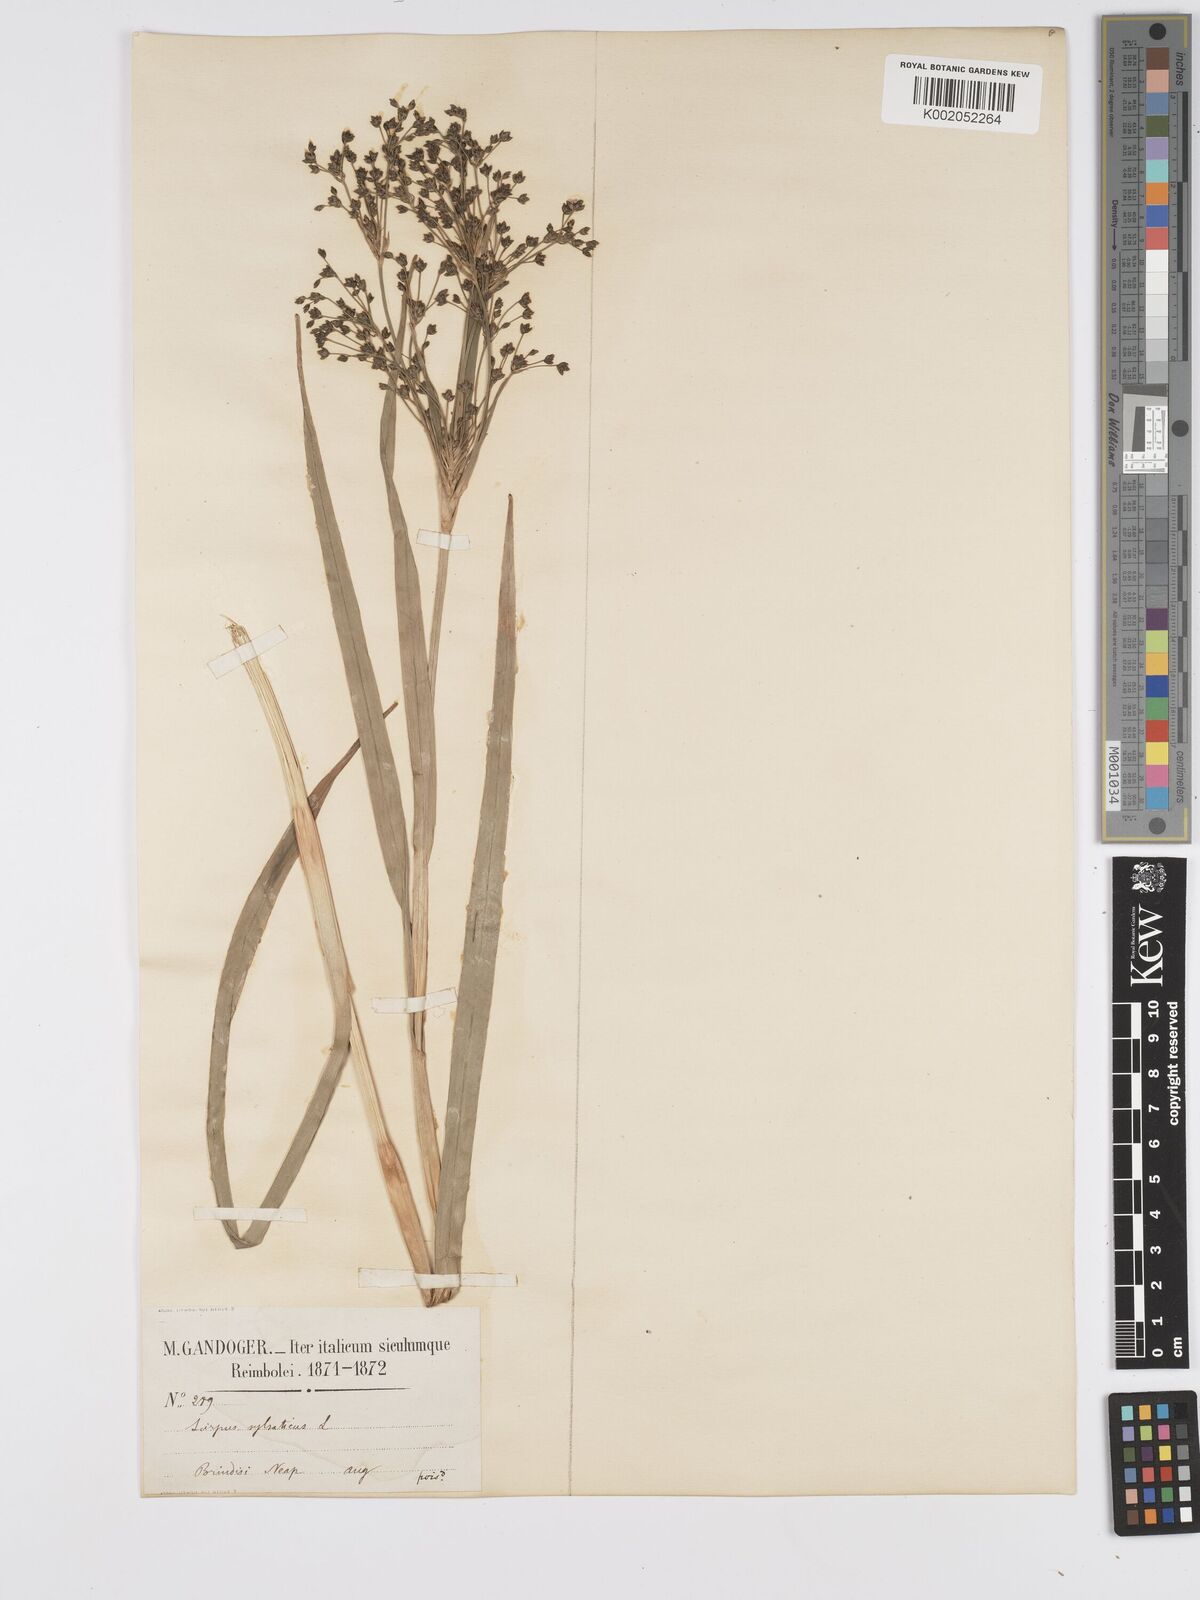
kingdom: Plantae
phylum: Tracheophyta
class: Liliopsida
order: Poales
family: Cyperaceae
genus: Scirpus
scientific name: Scirpus sylvaticus
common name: Wood club-rush
